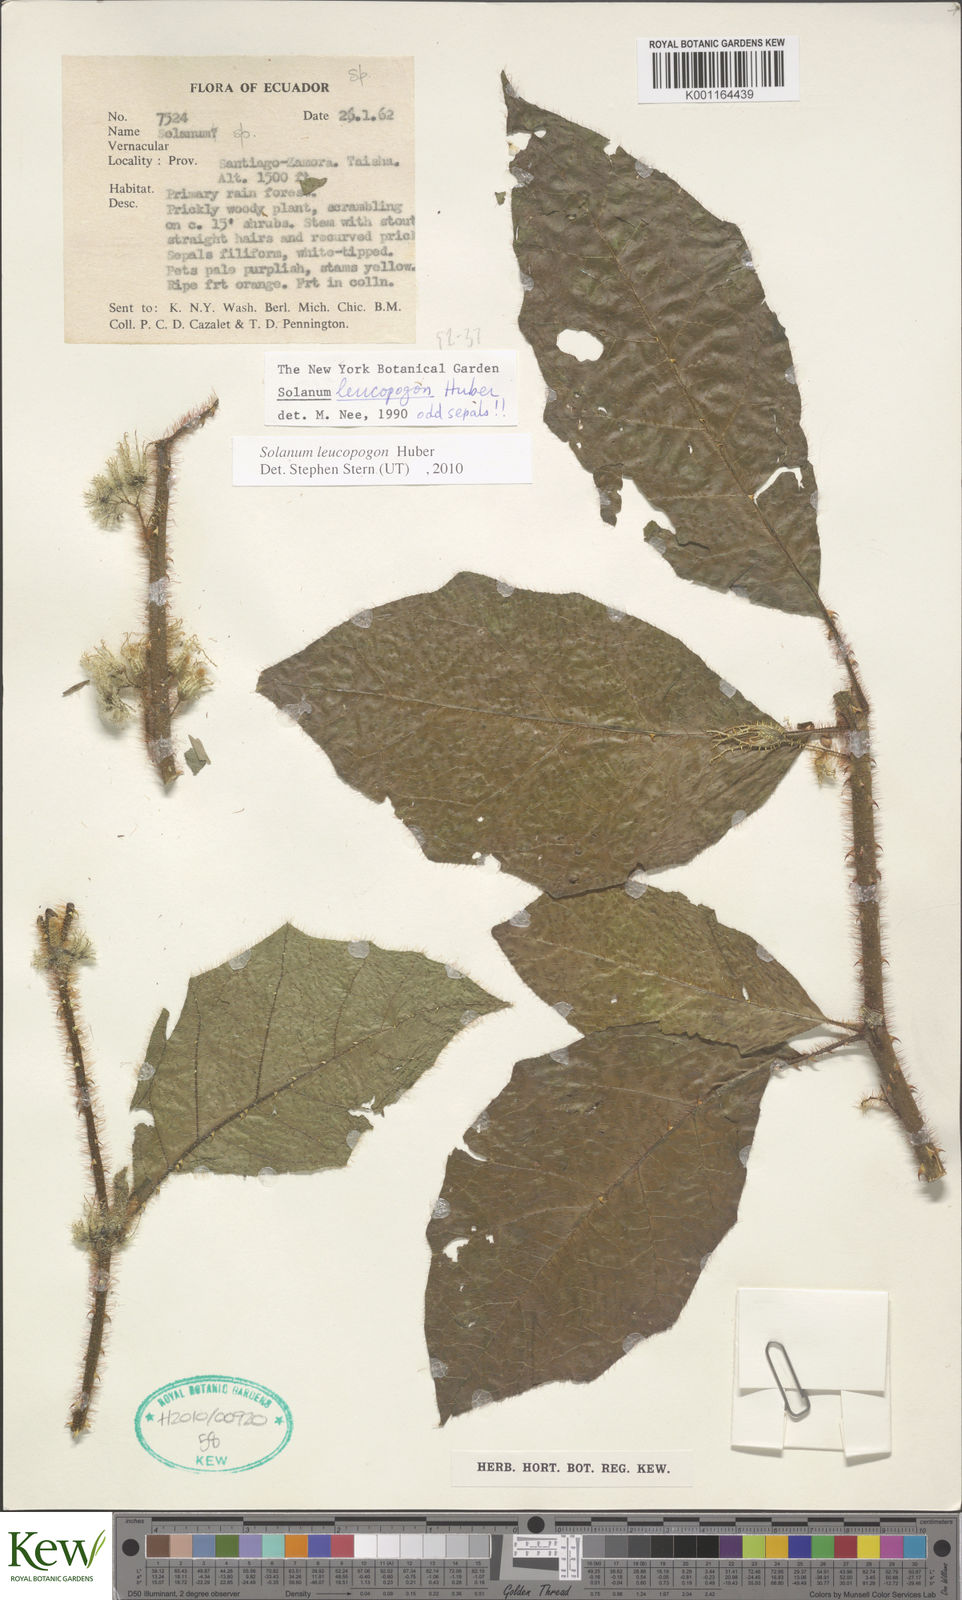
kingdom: Plantae
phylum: Tracheophyta
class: Magnoliopsida
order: Solanales
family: Solanaceae
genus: Solanum
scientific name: Solanum leucopogon
